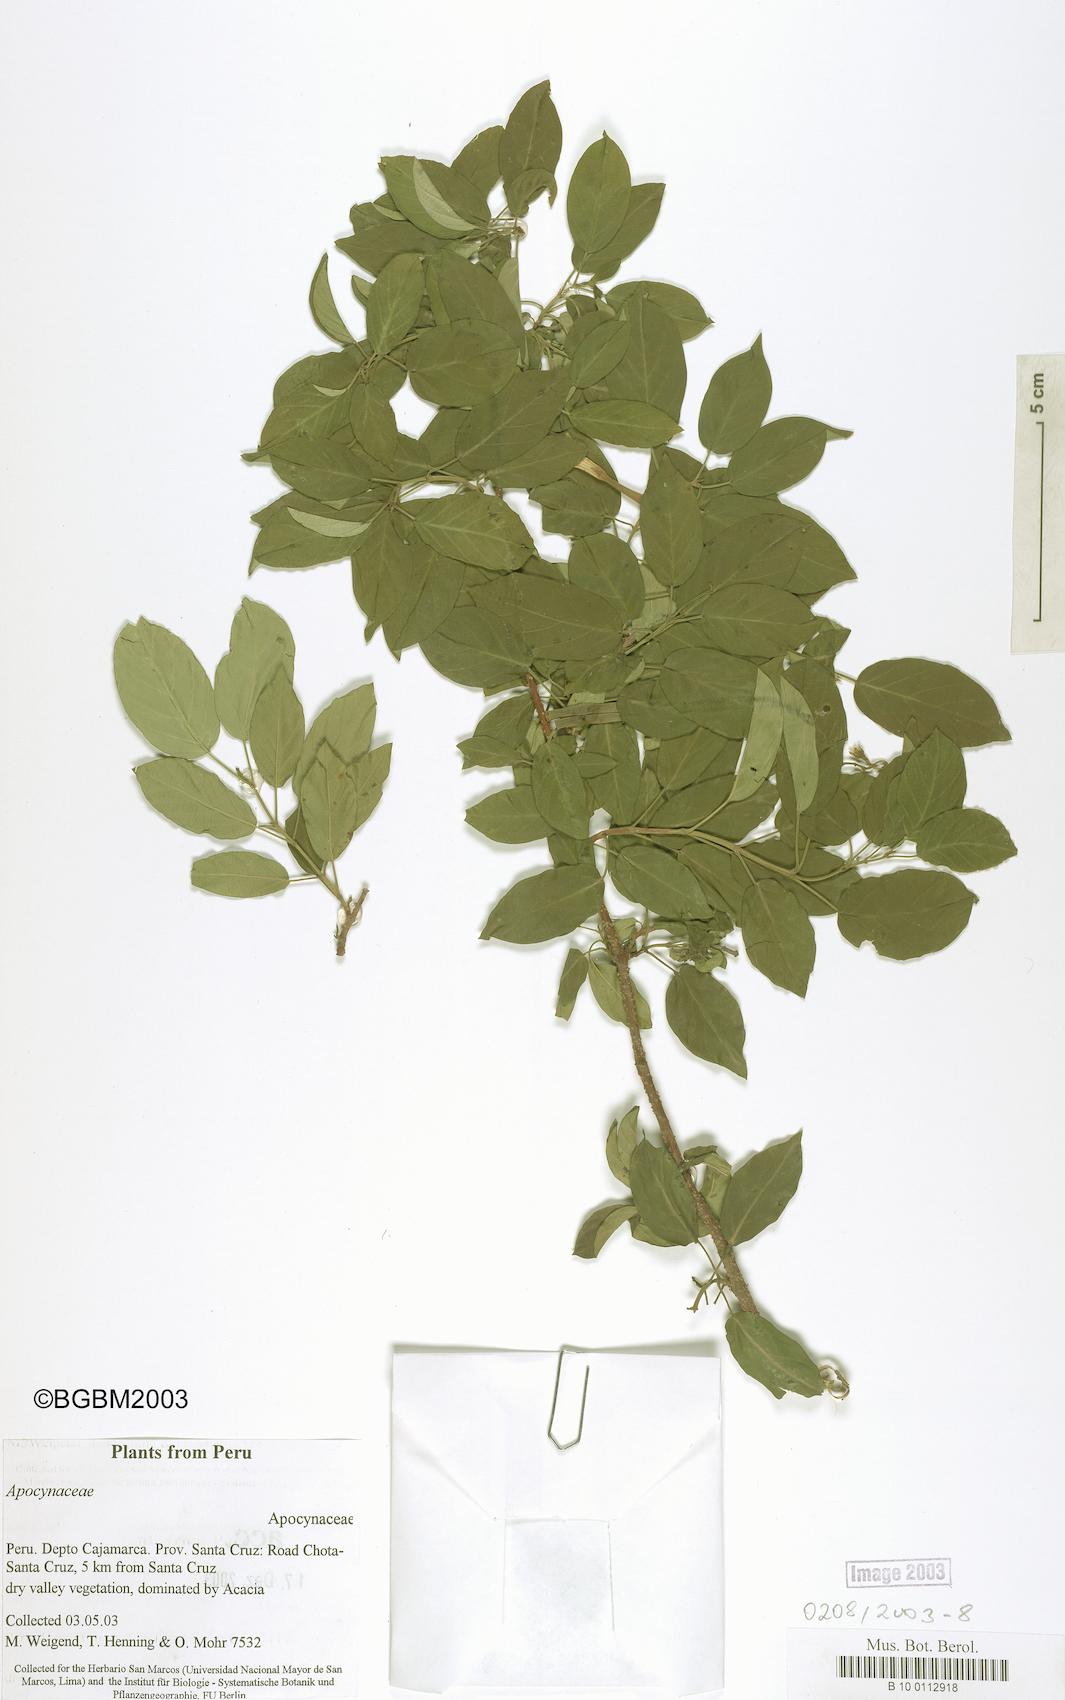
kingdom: Plantae
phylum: Tracheophyta
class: Magnoliopsida
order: Gentianales
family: Apocynaceae
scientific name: Apocynaceae
